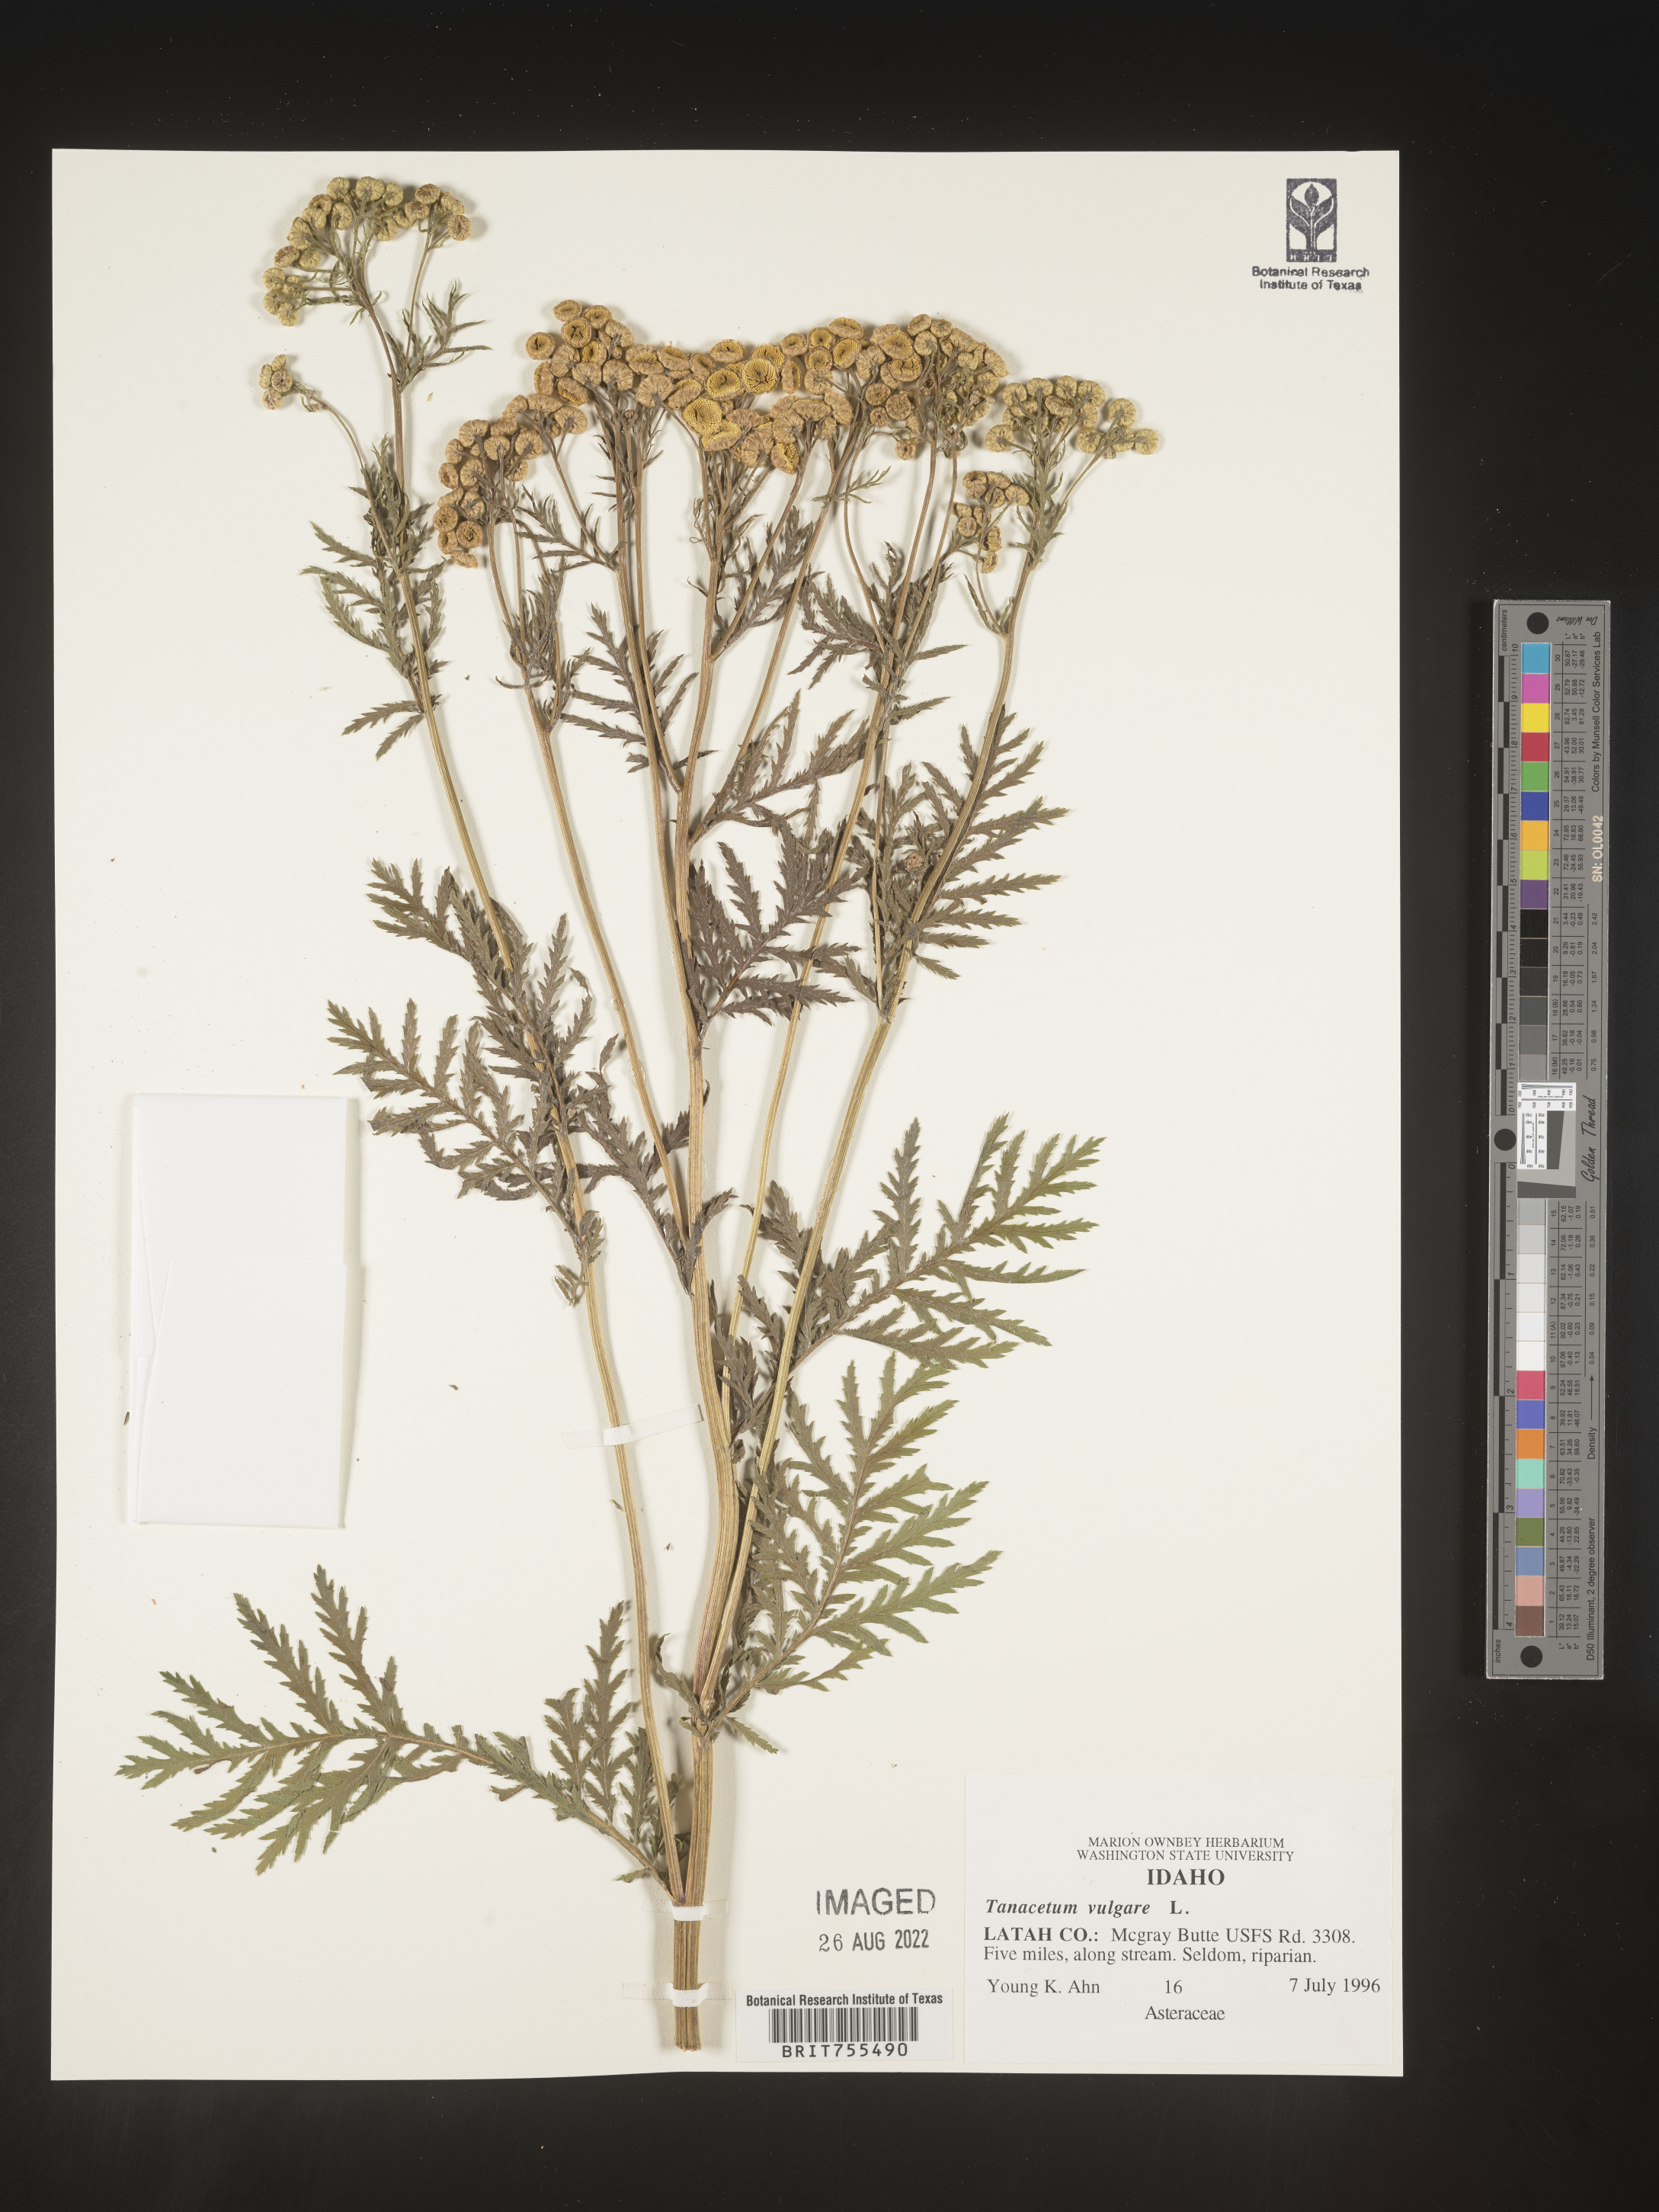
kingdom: Plantae
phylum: Tracheophyta
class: Magnoliopsida
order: Asterales
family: Asteraceae
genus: Tanacetum
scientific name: Tanacetum vulgare
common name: Common tansy
